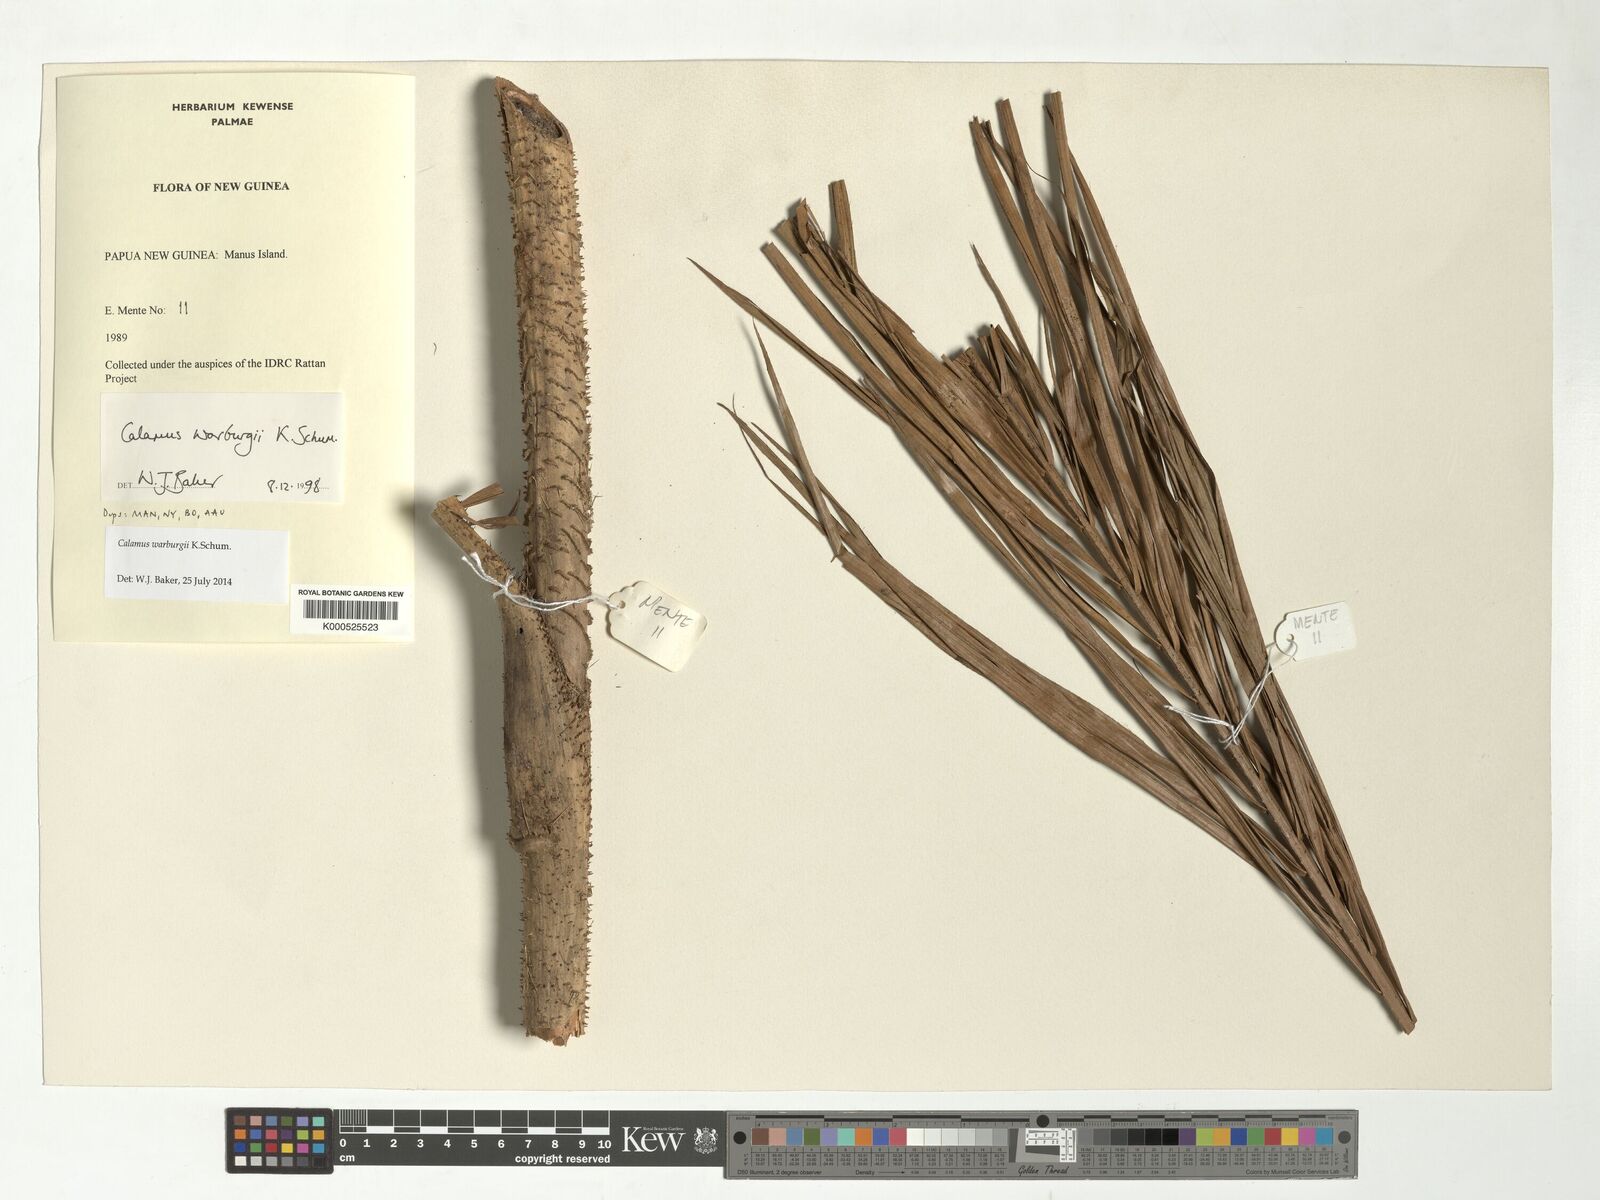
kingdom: Plantae
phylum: Tracheophyta
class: Liliopsida
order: Arecales
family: Arecaceae
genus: Calamus
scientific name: Calamus warburgii
